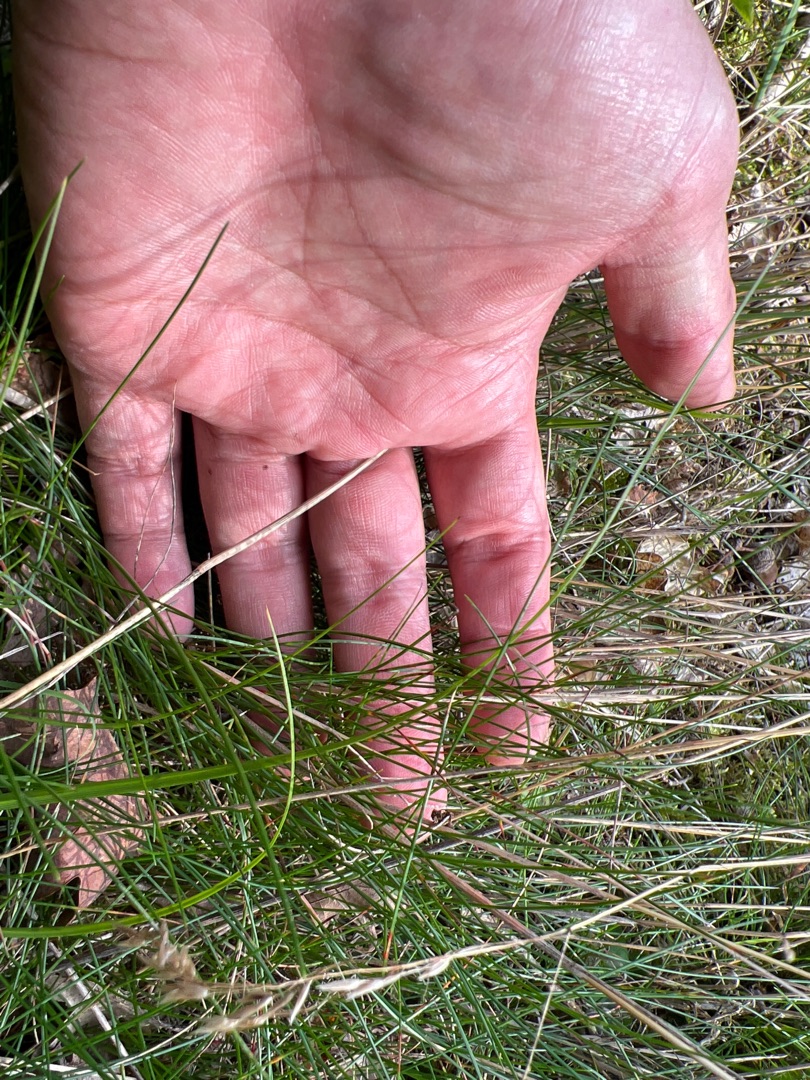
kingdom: Plantae
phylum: Tracheophyta
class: Liliopsida
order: Poales
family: Poaceae
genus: Avenella
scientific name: Avenella flexuosa
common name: Bølget bunke
